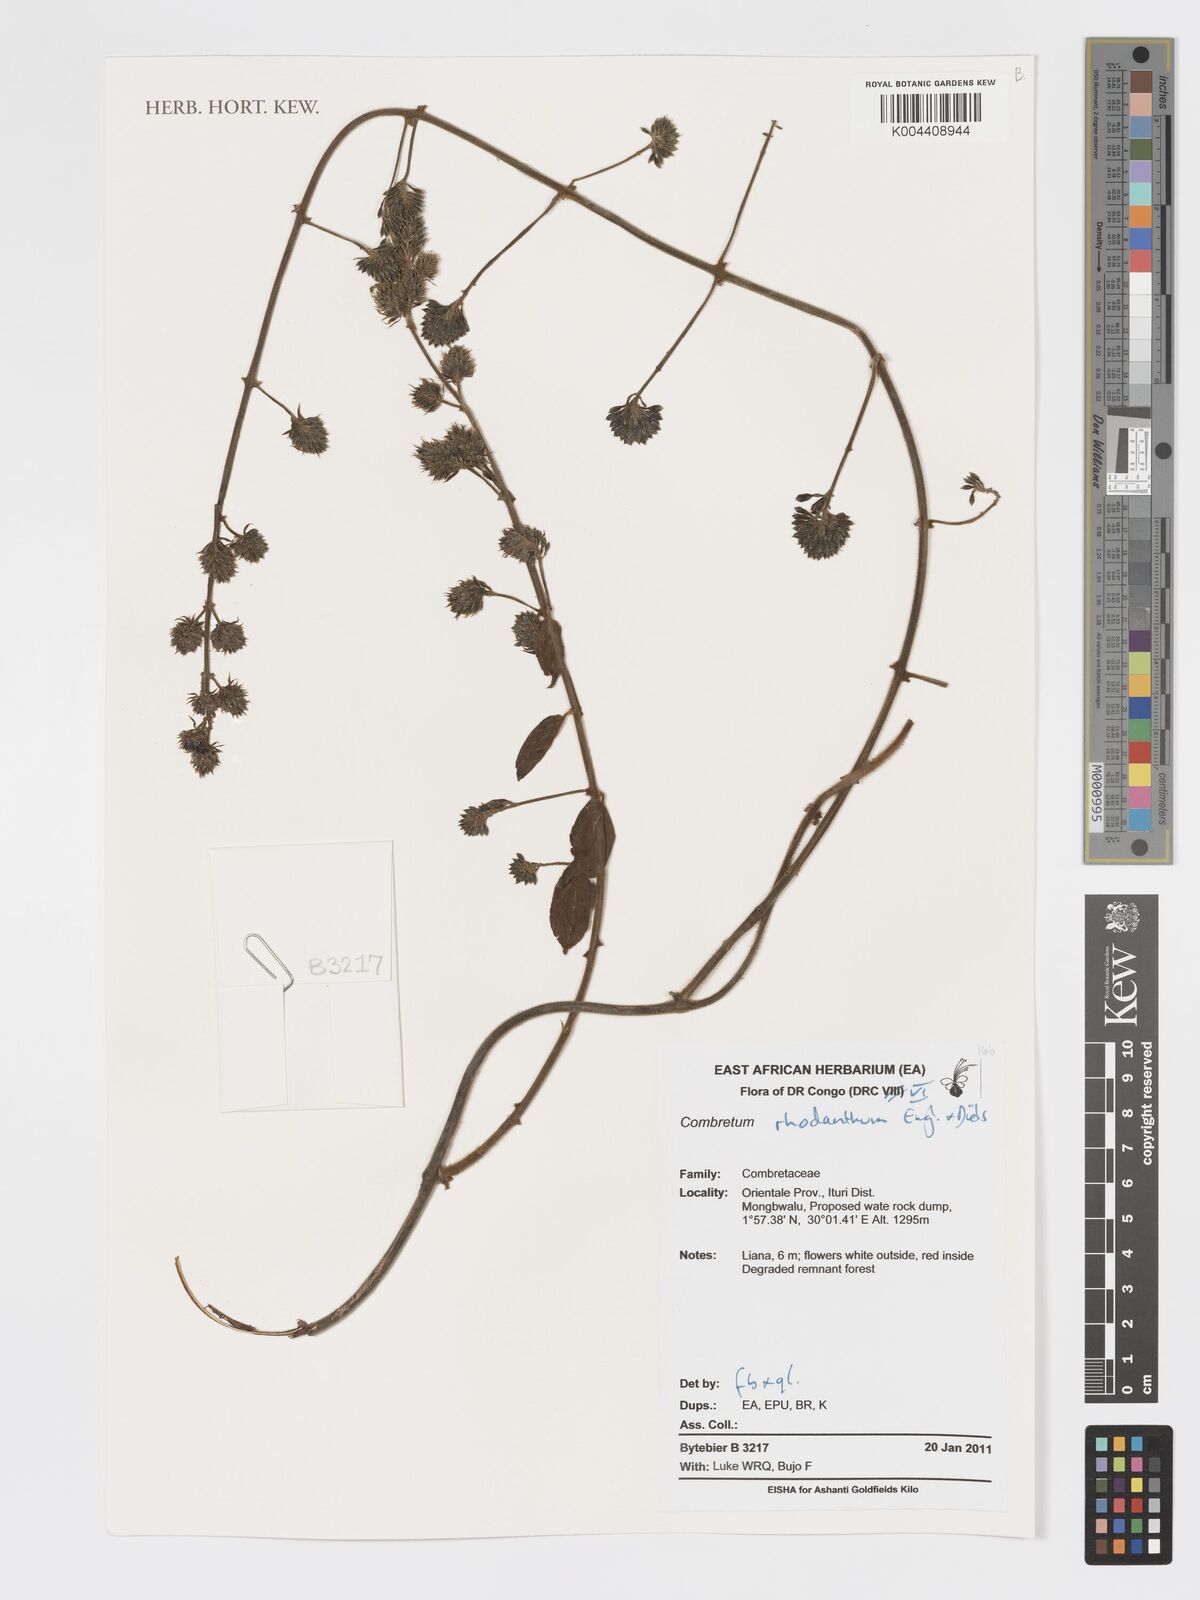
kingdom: Plantae
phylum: Tracheophyta
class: Magnoliopsida
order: Myrtales
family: Combretaceae
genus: Combretum
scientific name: Combretum comosum
